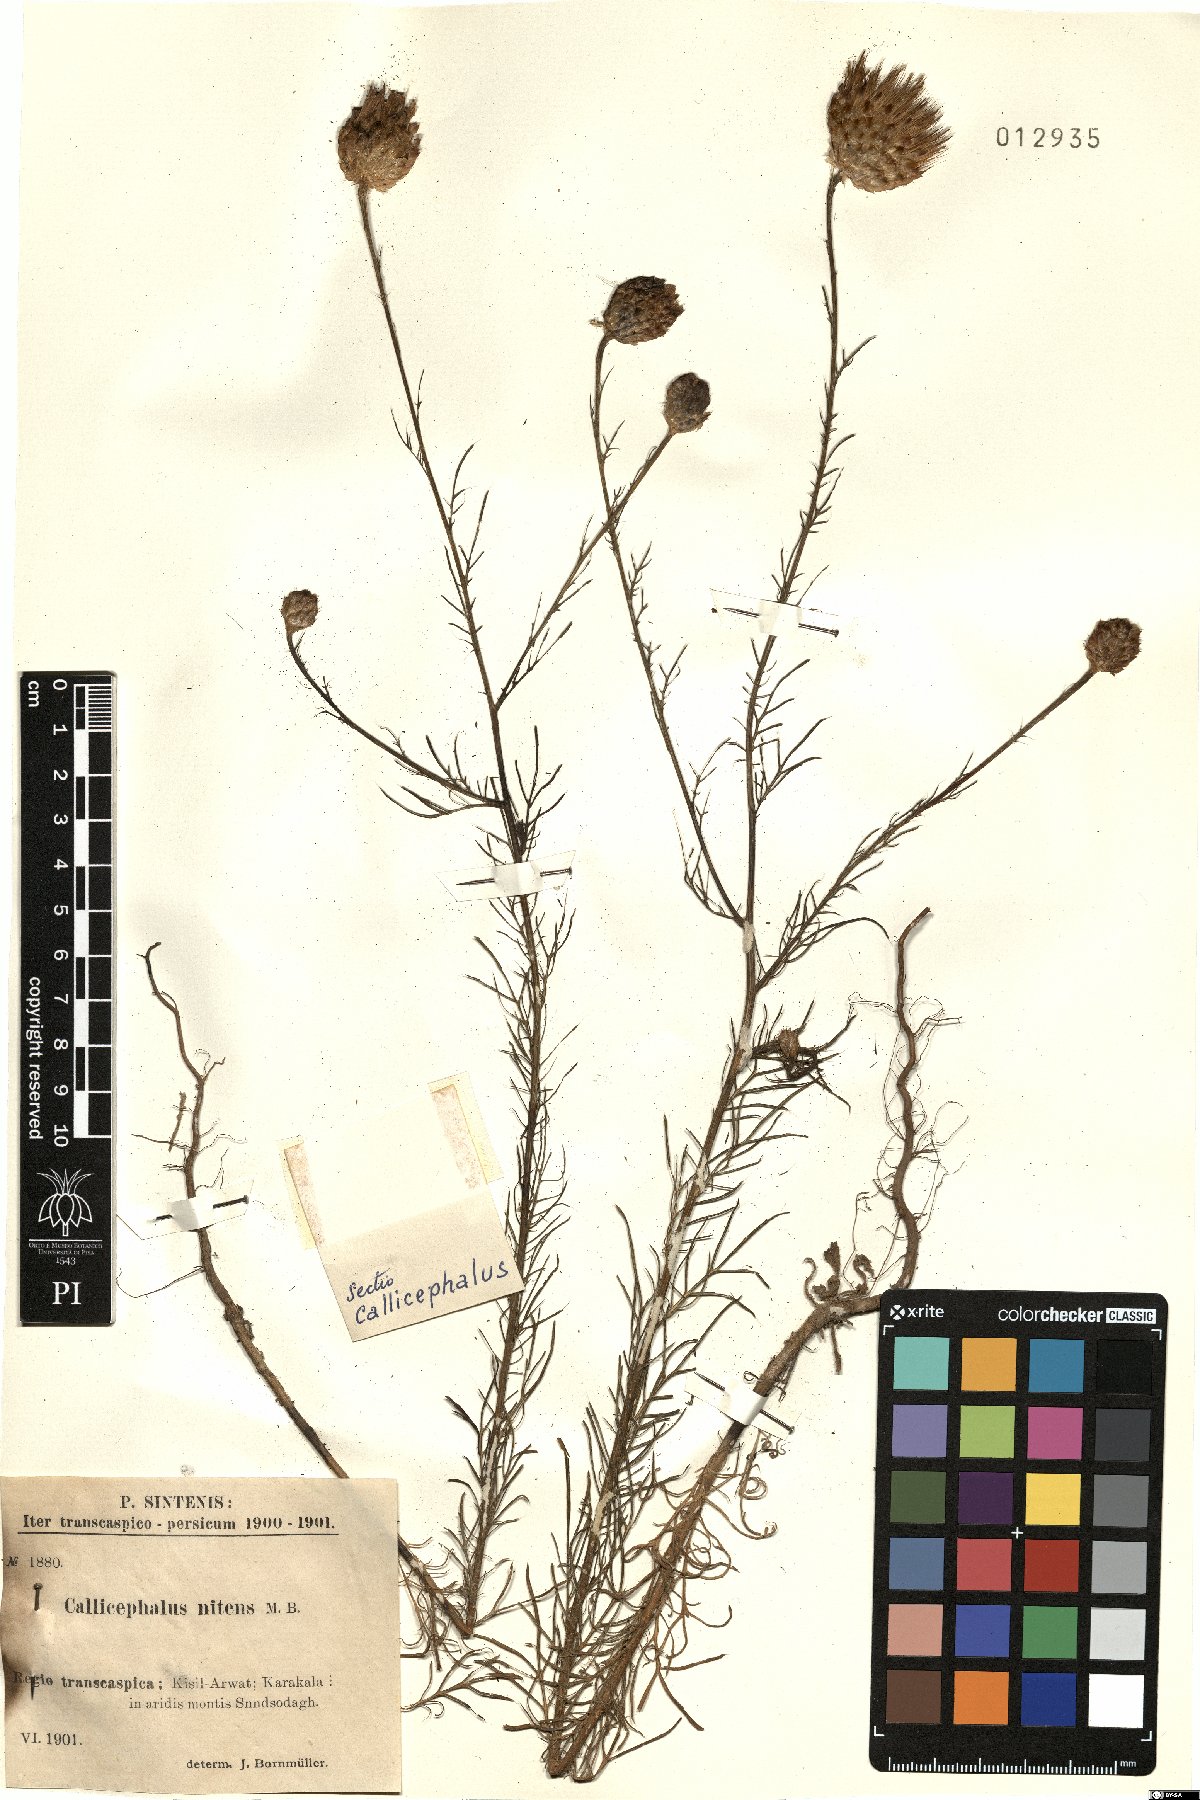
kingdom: Plantae
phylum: Tracheophyta
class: Magnoliopsida
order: Asterales
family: Asteraceae
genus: Callicephalus
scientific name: Callicephalus nitens
